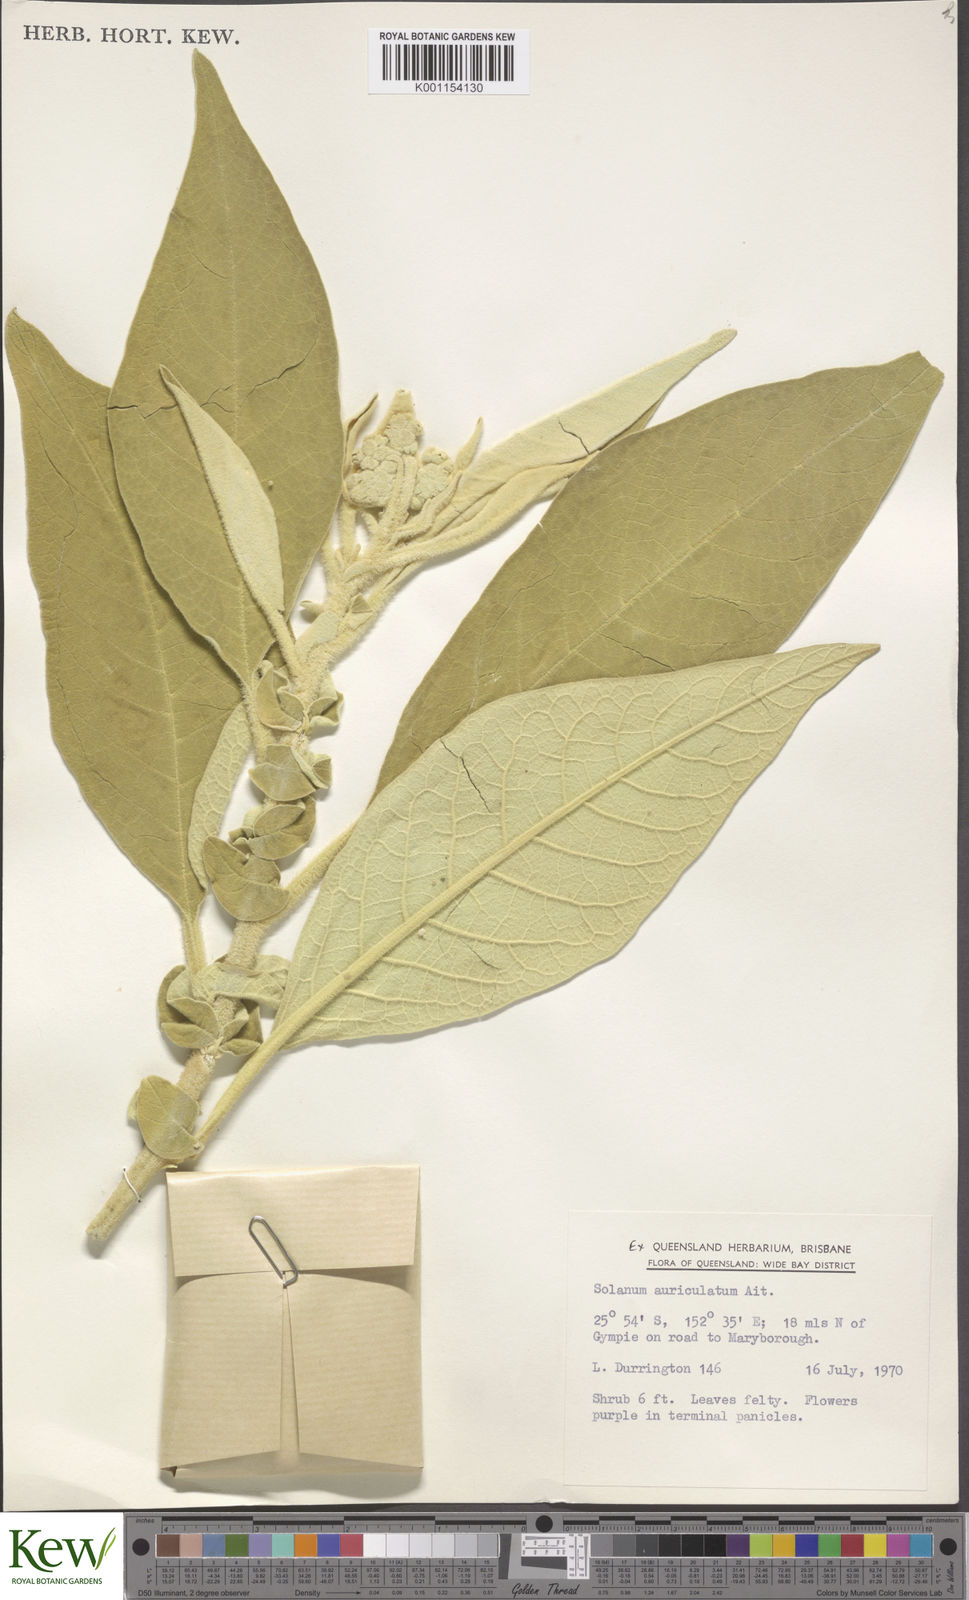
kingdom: Plantae
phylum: Tracheophyta
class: Magnoliopsida
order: Solanales
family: Solanaceae
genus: Solanum
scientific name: Solanum mauritianum
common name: Earleaf nightshade
